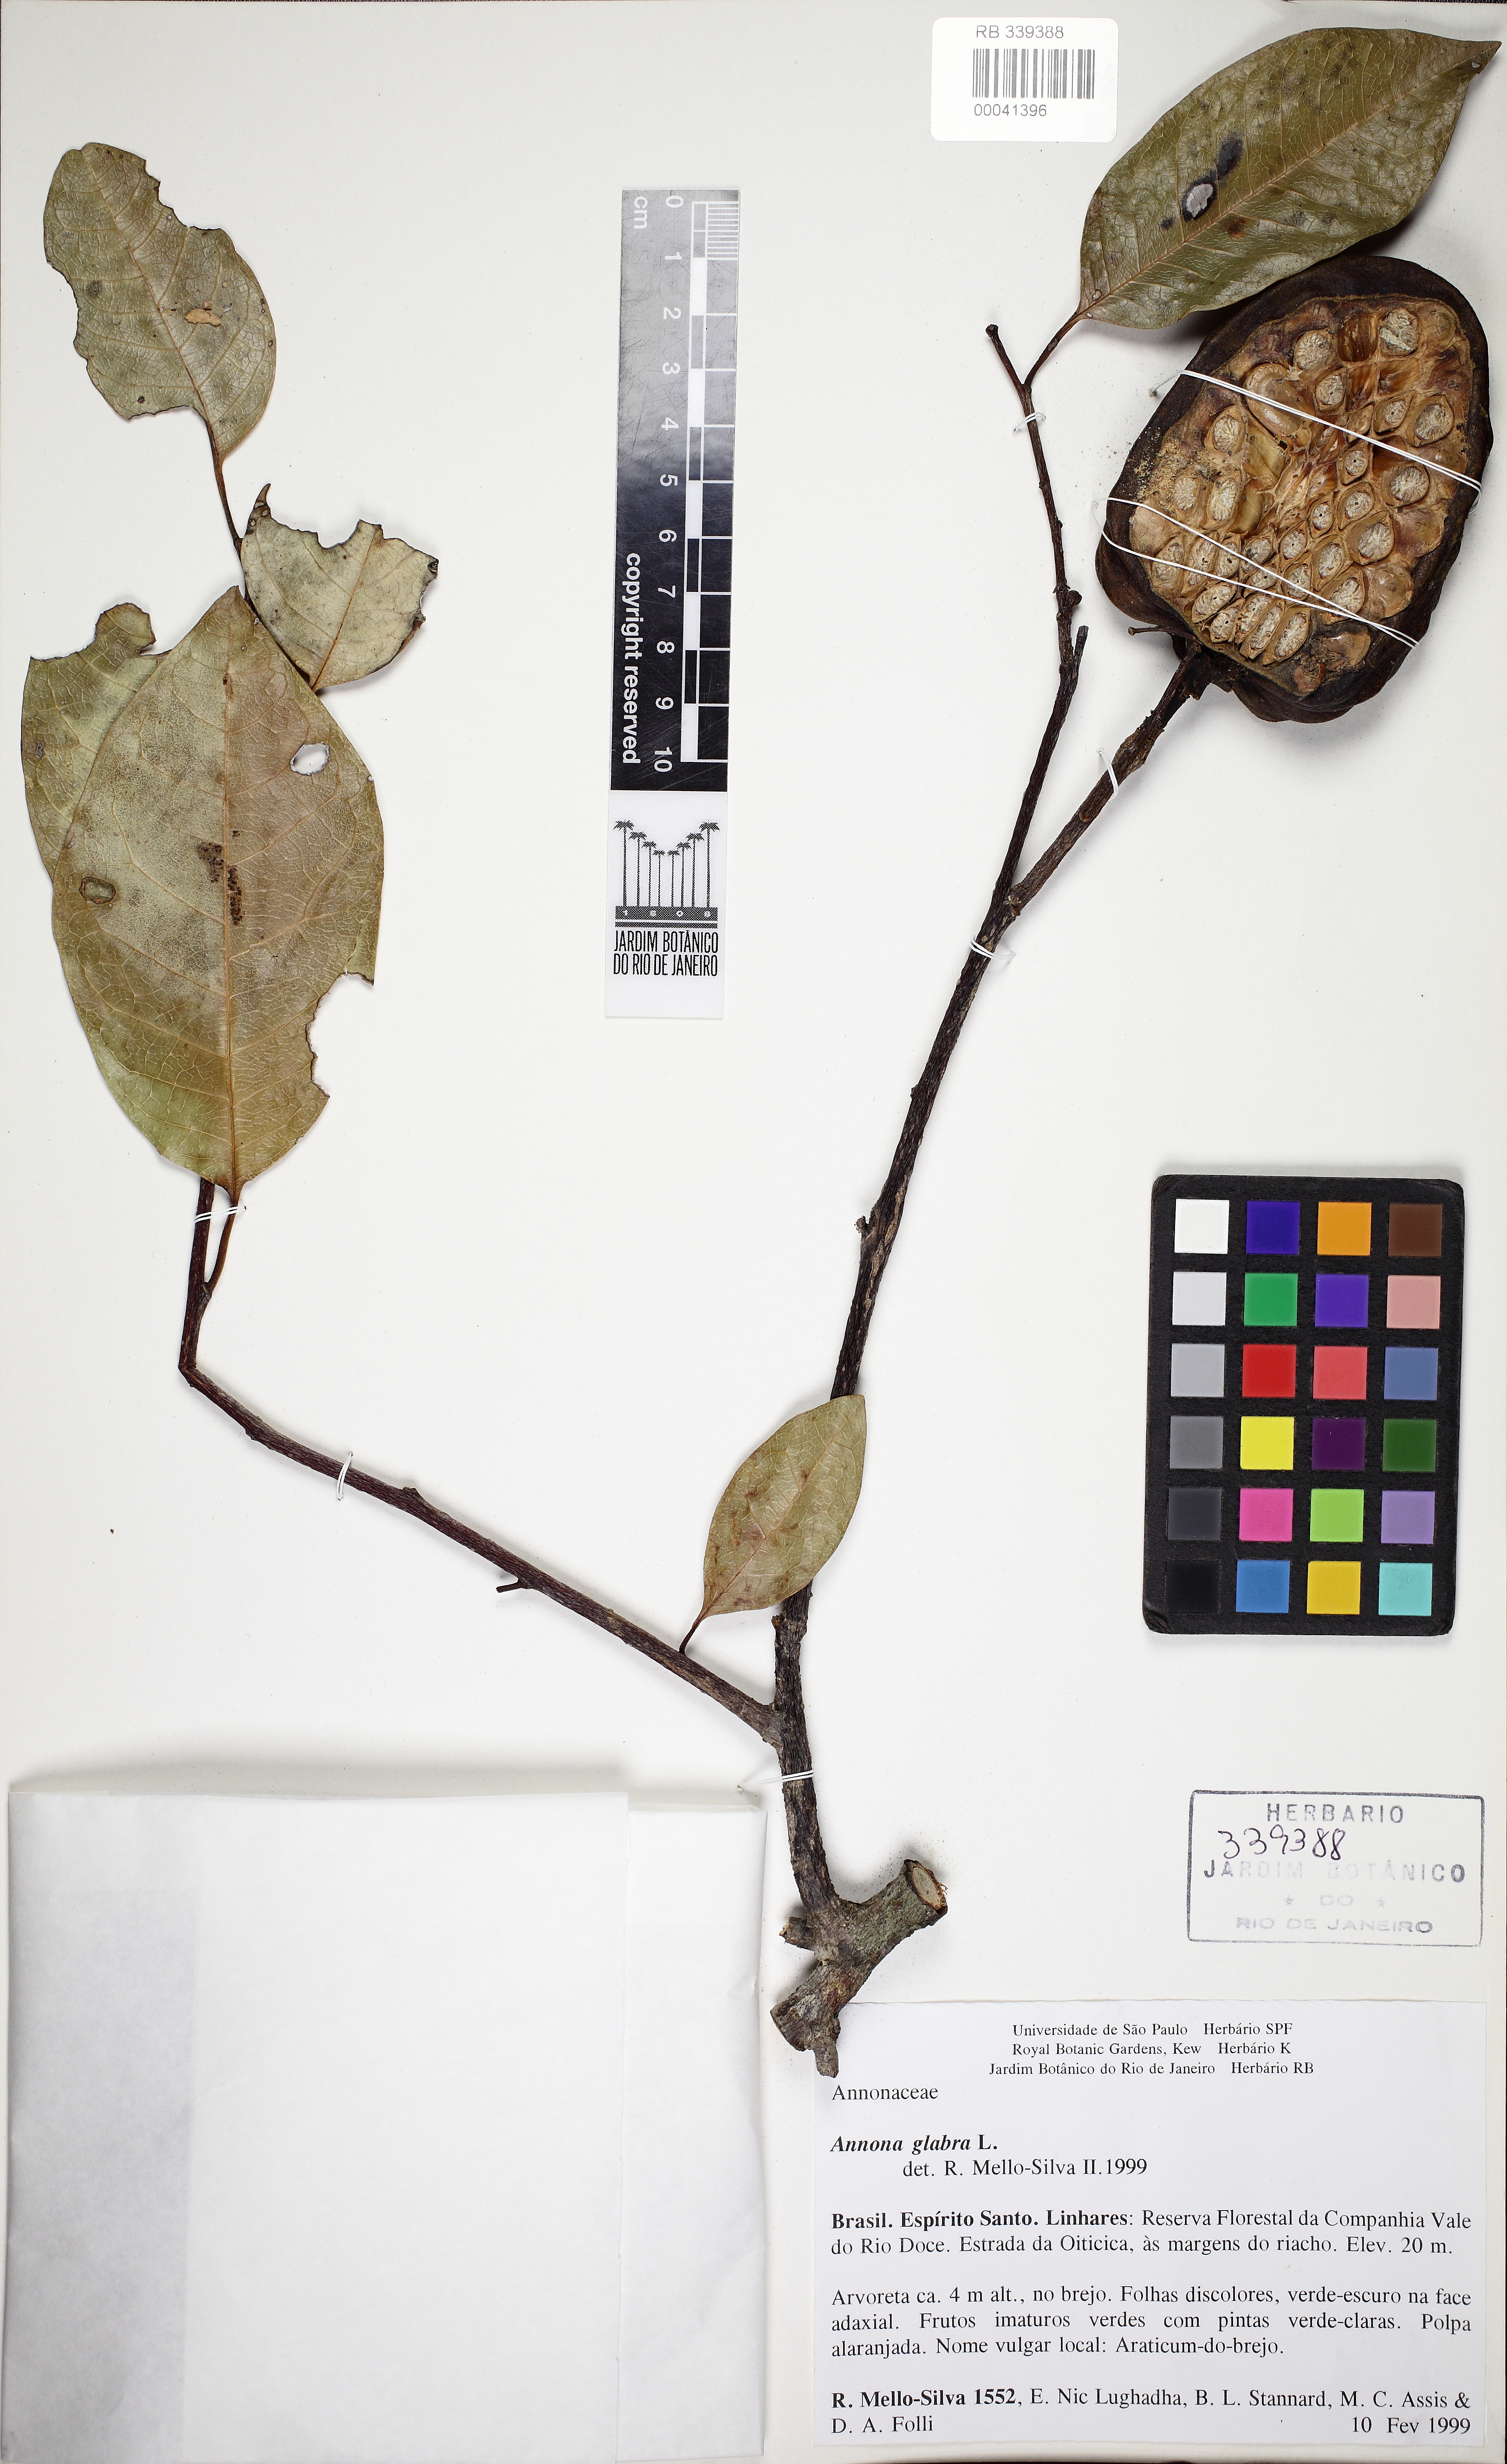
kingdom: Plantae
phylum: Tracheophyta
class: Magnoliopsida
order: Magnoliales
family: Annonaceae
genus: Annona
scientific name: Annona glabra
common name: Monkey apple
